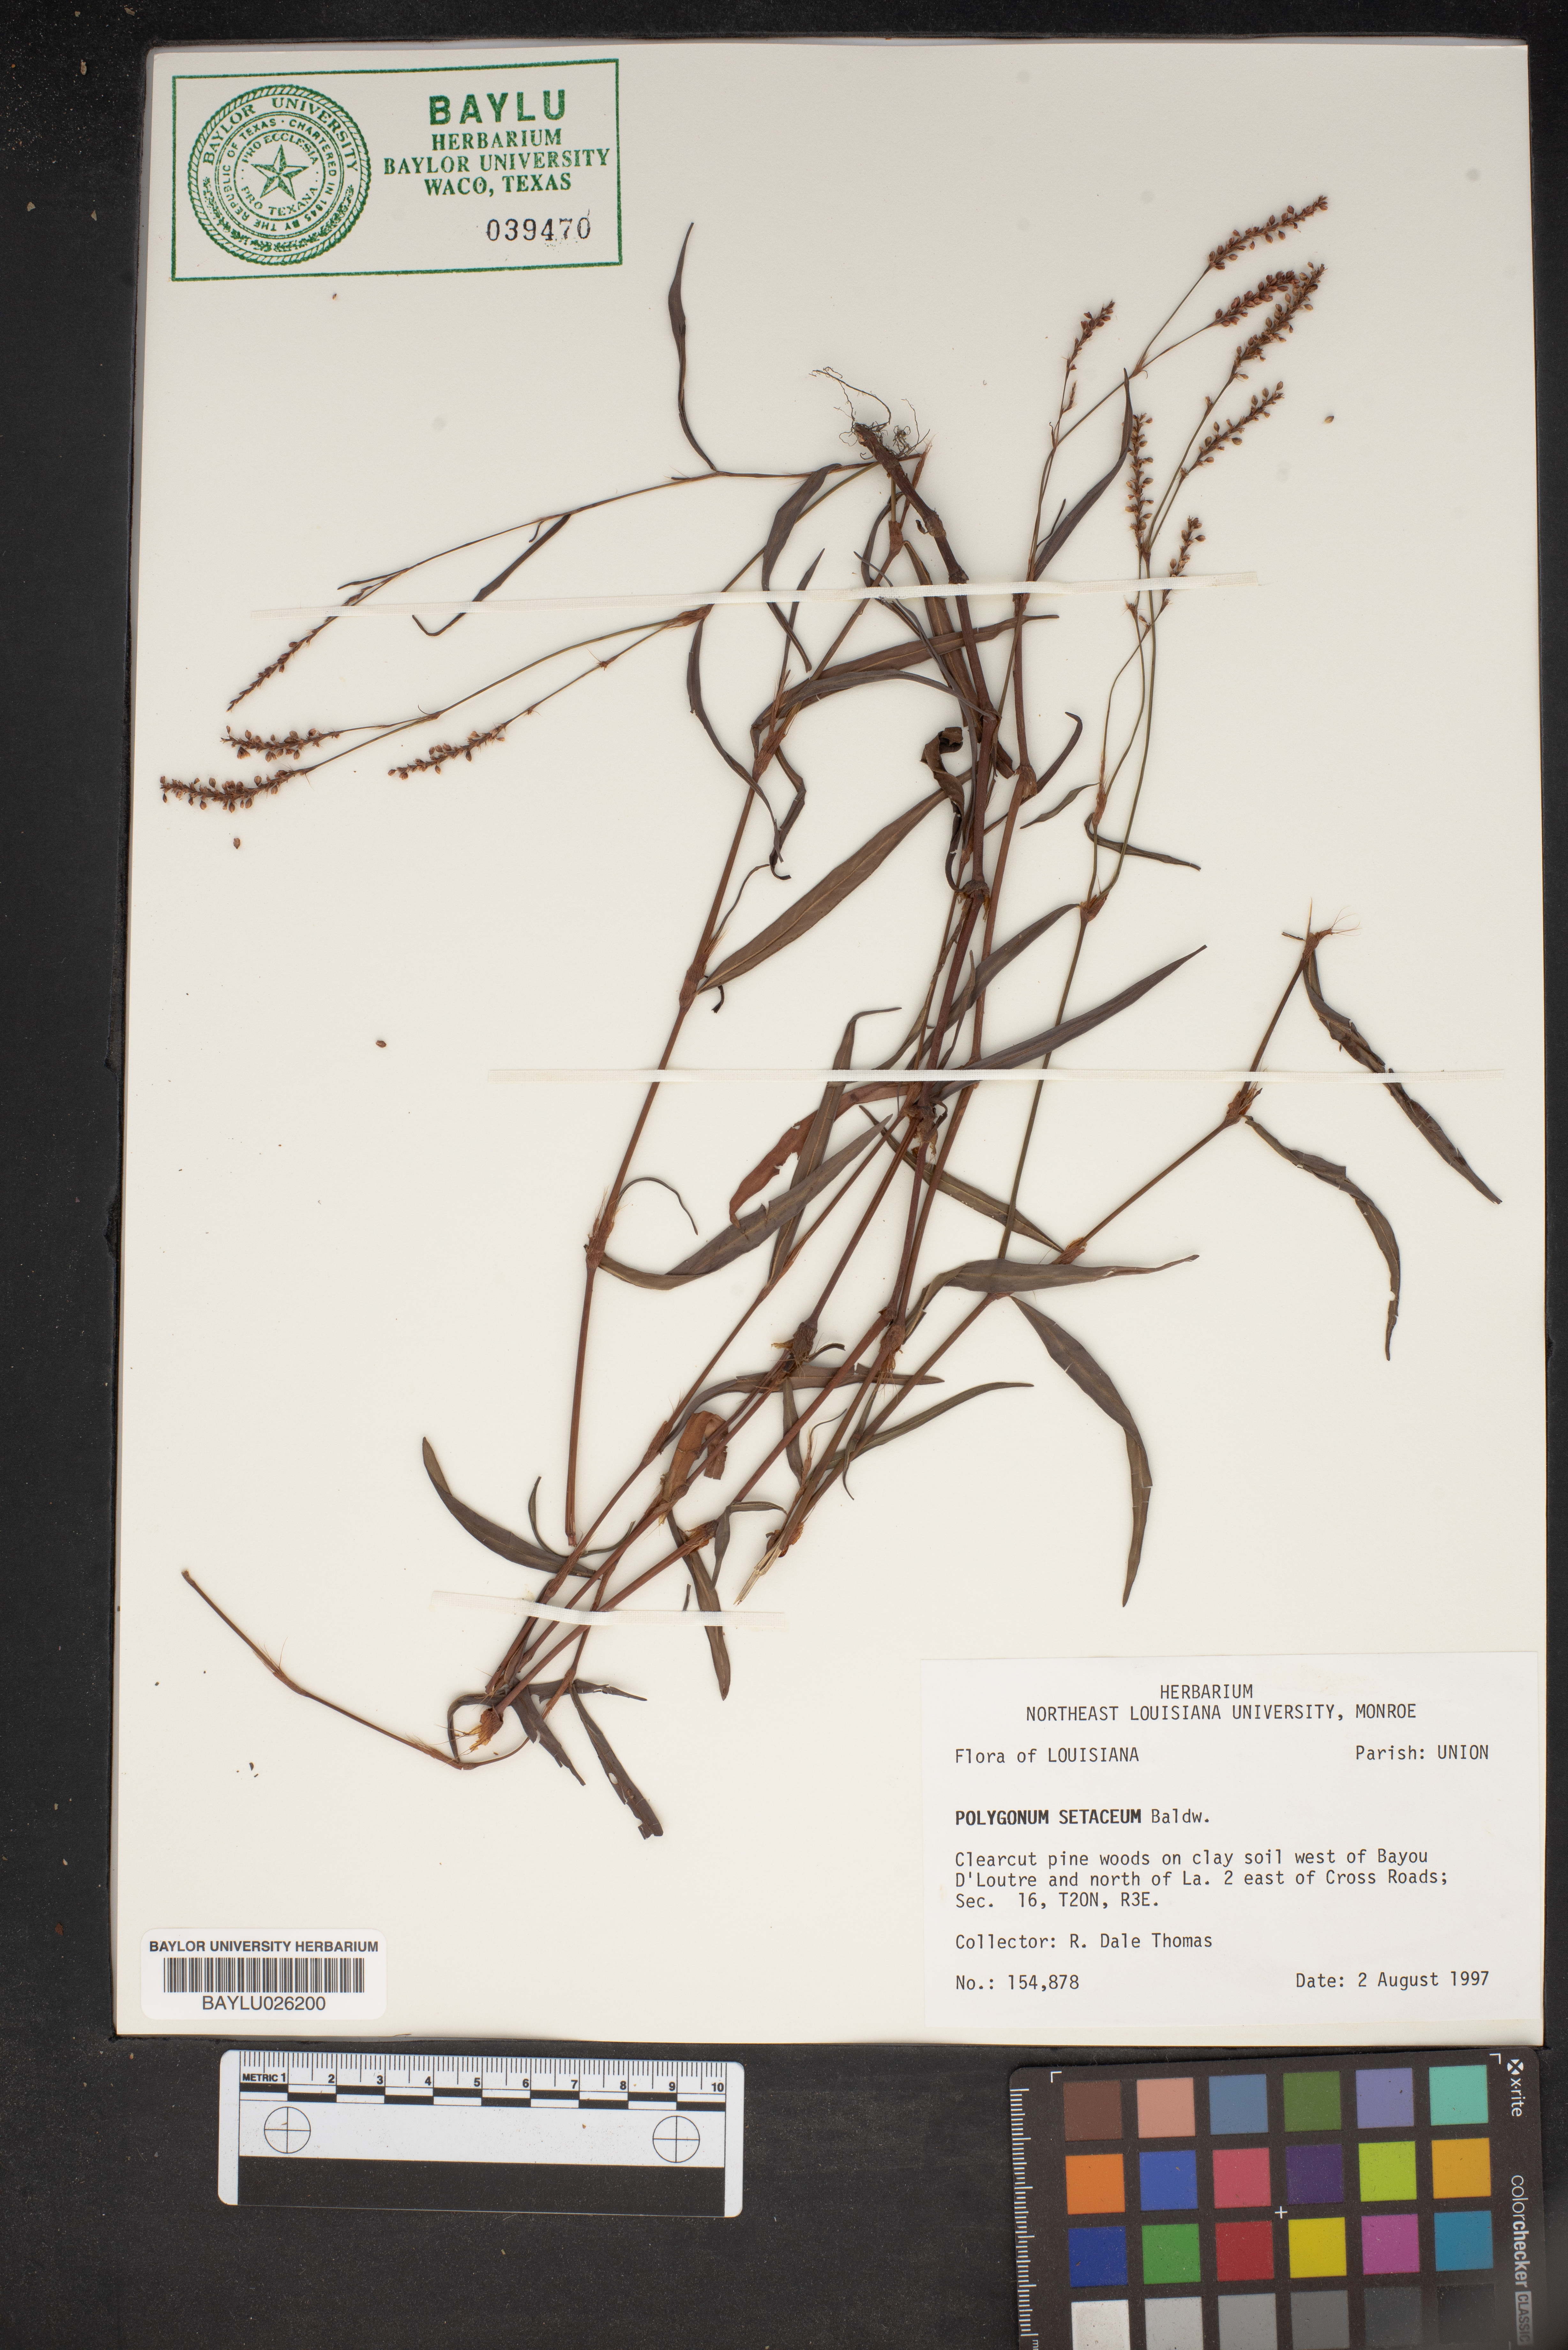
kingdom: Plantae
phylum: Tracheophyta
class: Magnoliopsida
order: Caryophyllales
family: Polygonaceae
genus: Persicaria
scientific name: Persicaria setacea
